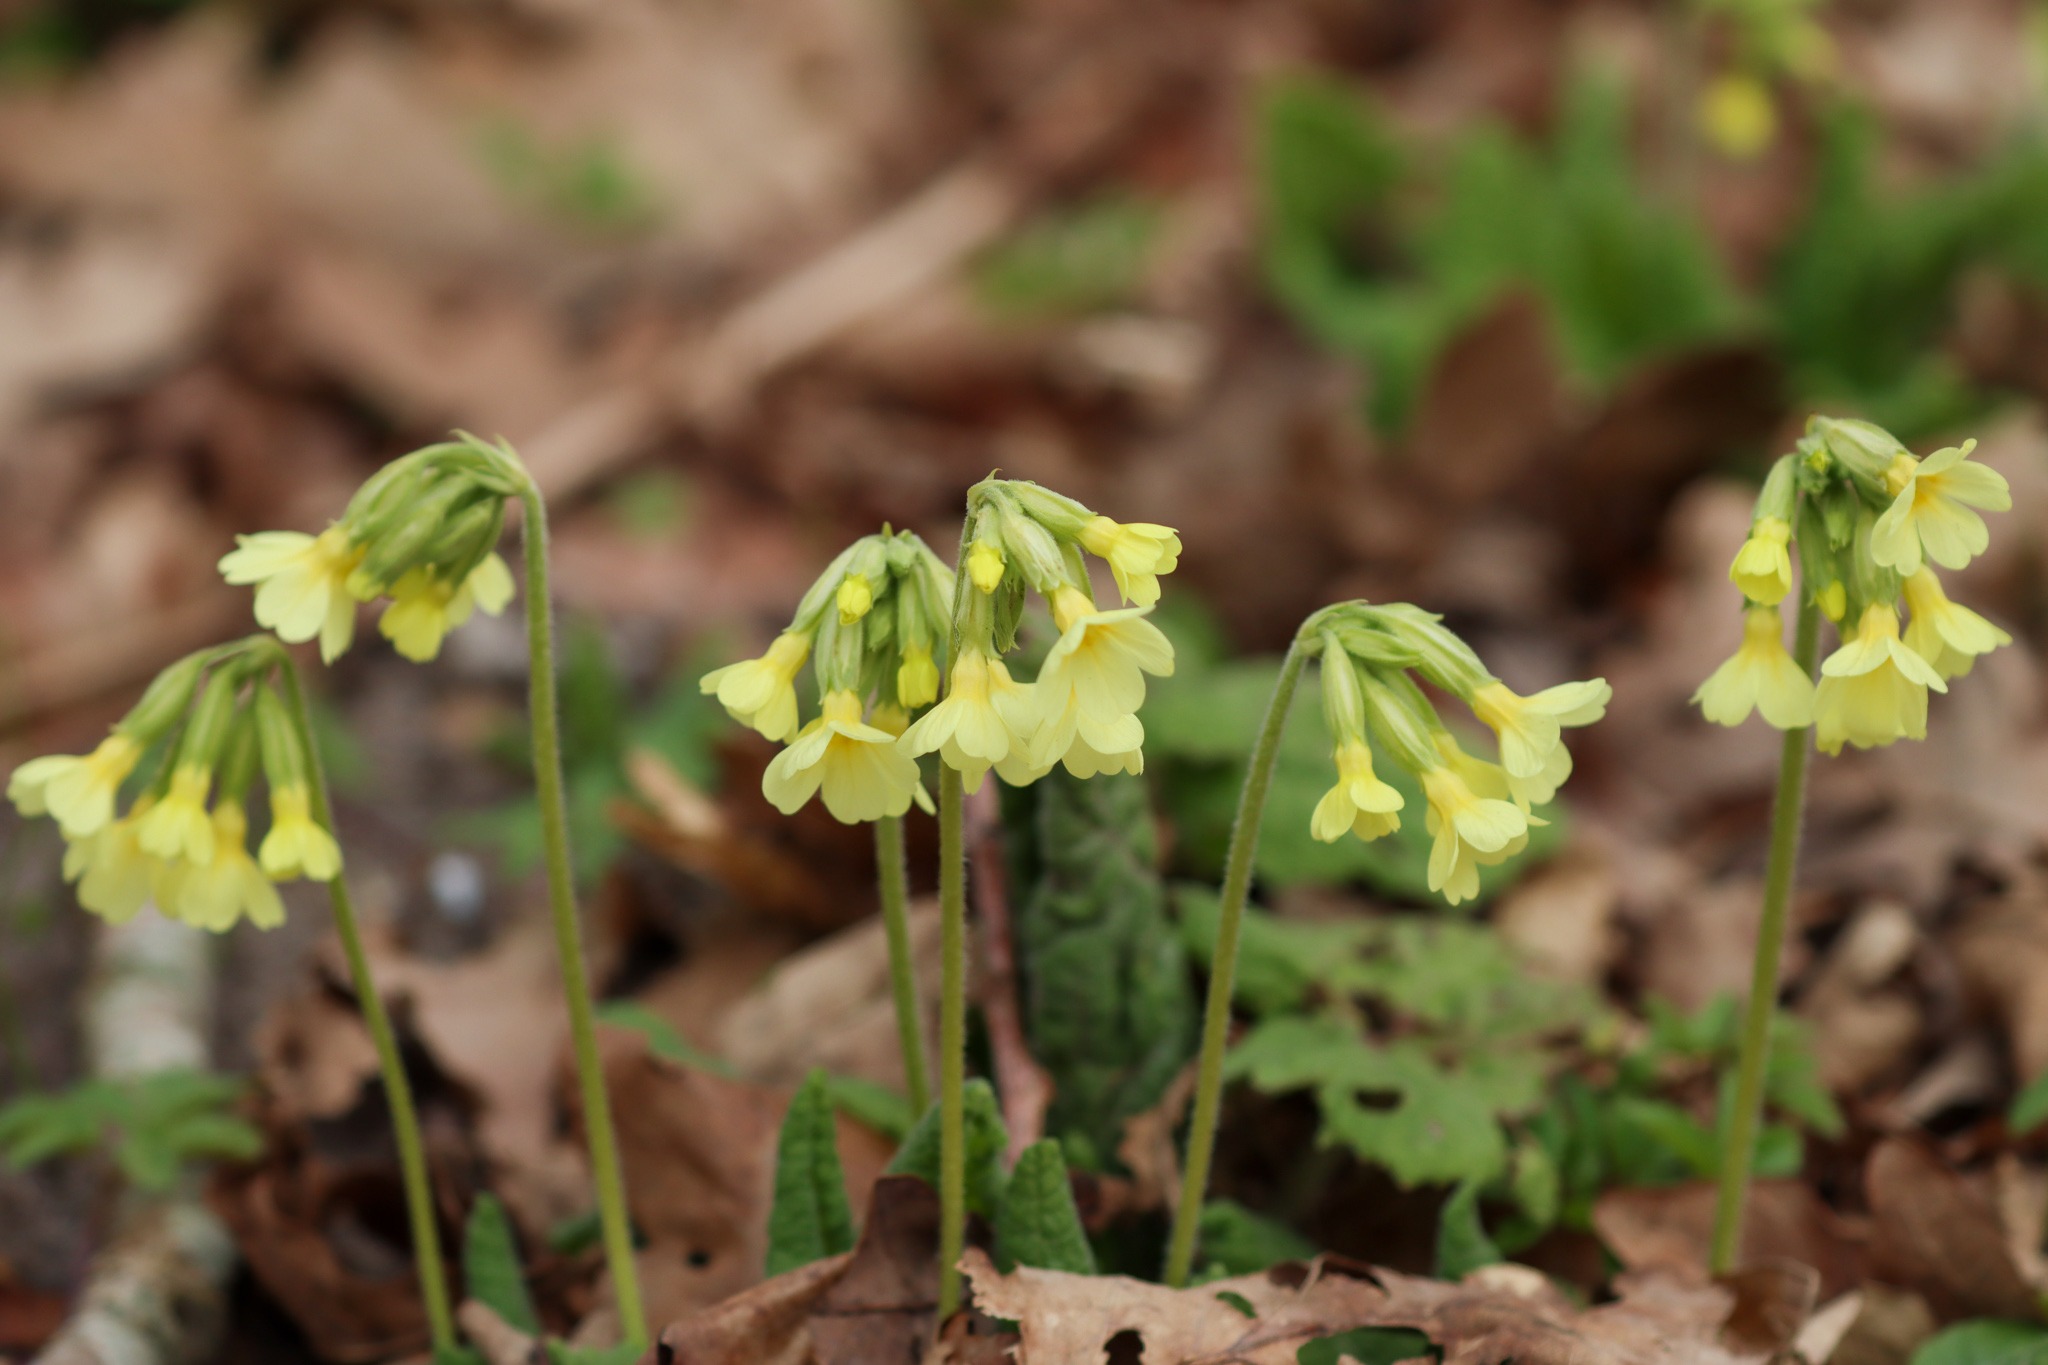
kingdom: Plantae
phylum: Tracheophyta
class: Magnoliopsida
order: Ericales
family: Primulaceae
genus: Primula
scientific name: Primula elatior
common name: Fladkravet kodriver
